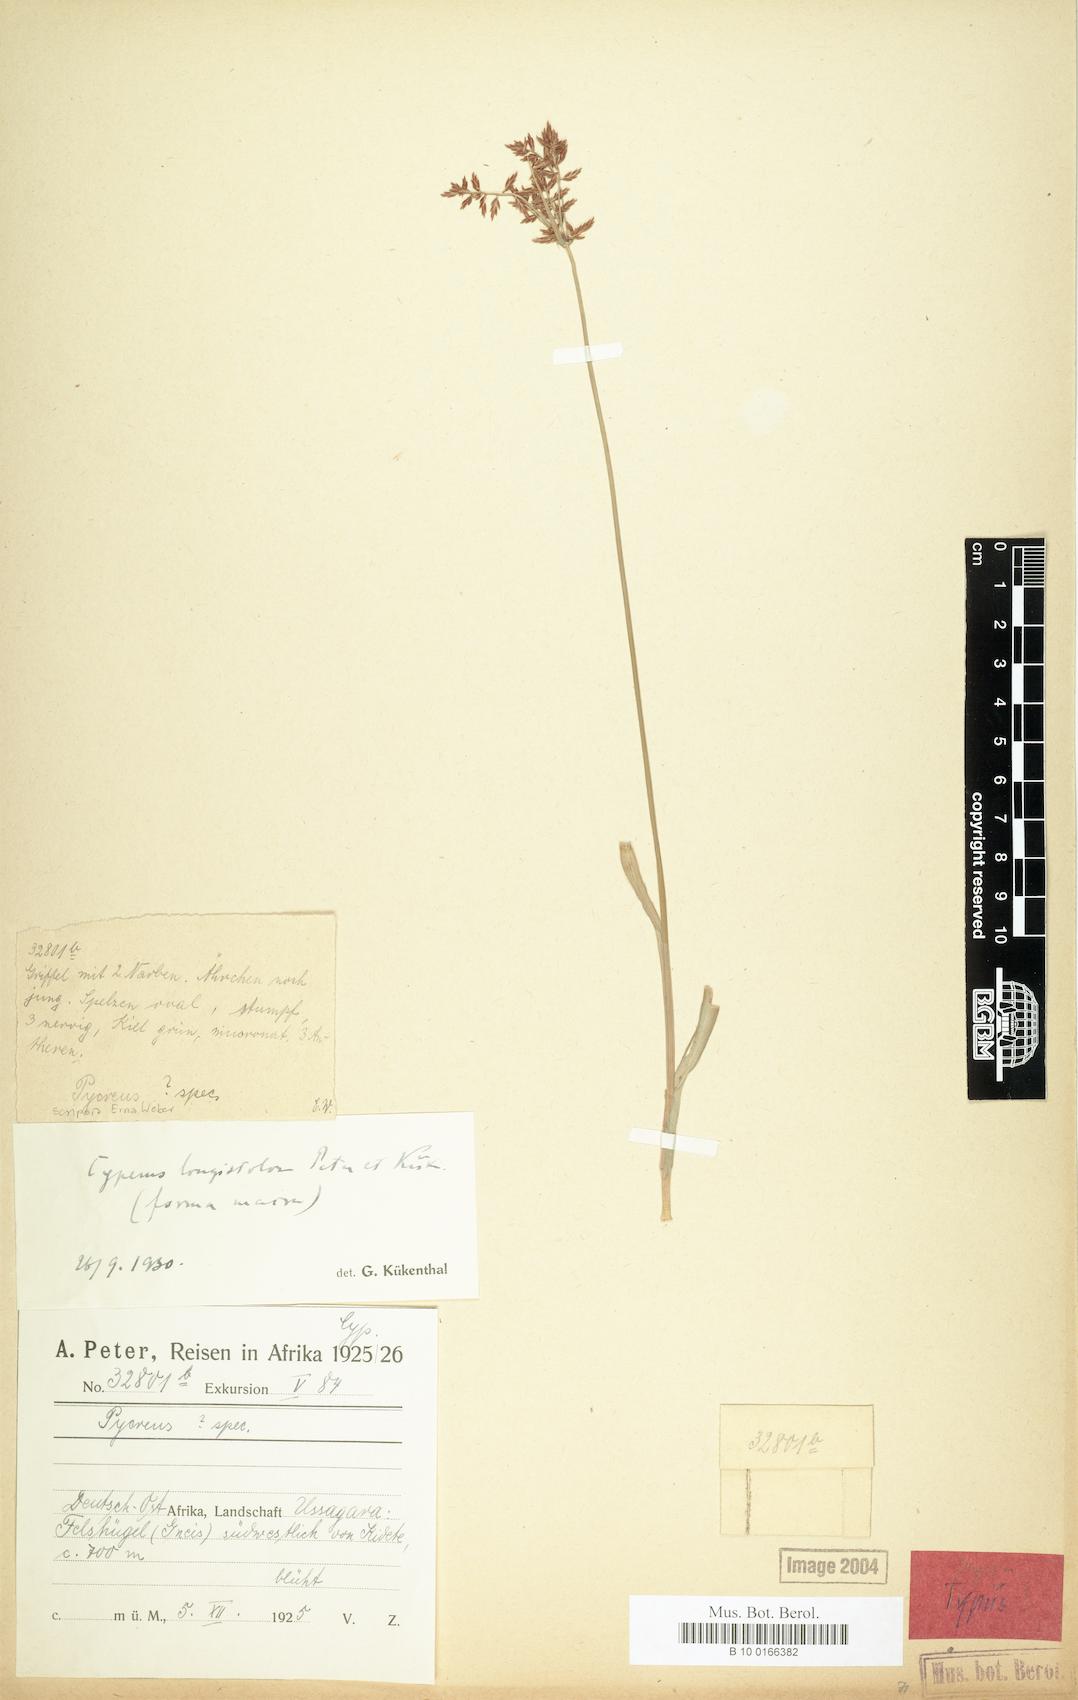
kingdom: Plantae
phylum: Tracheophyta
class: Liliopsida
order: Poales
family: Cyperaceae
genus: Cyperus
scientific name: Cyperus chrysanthus
